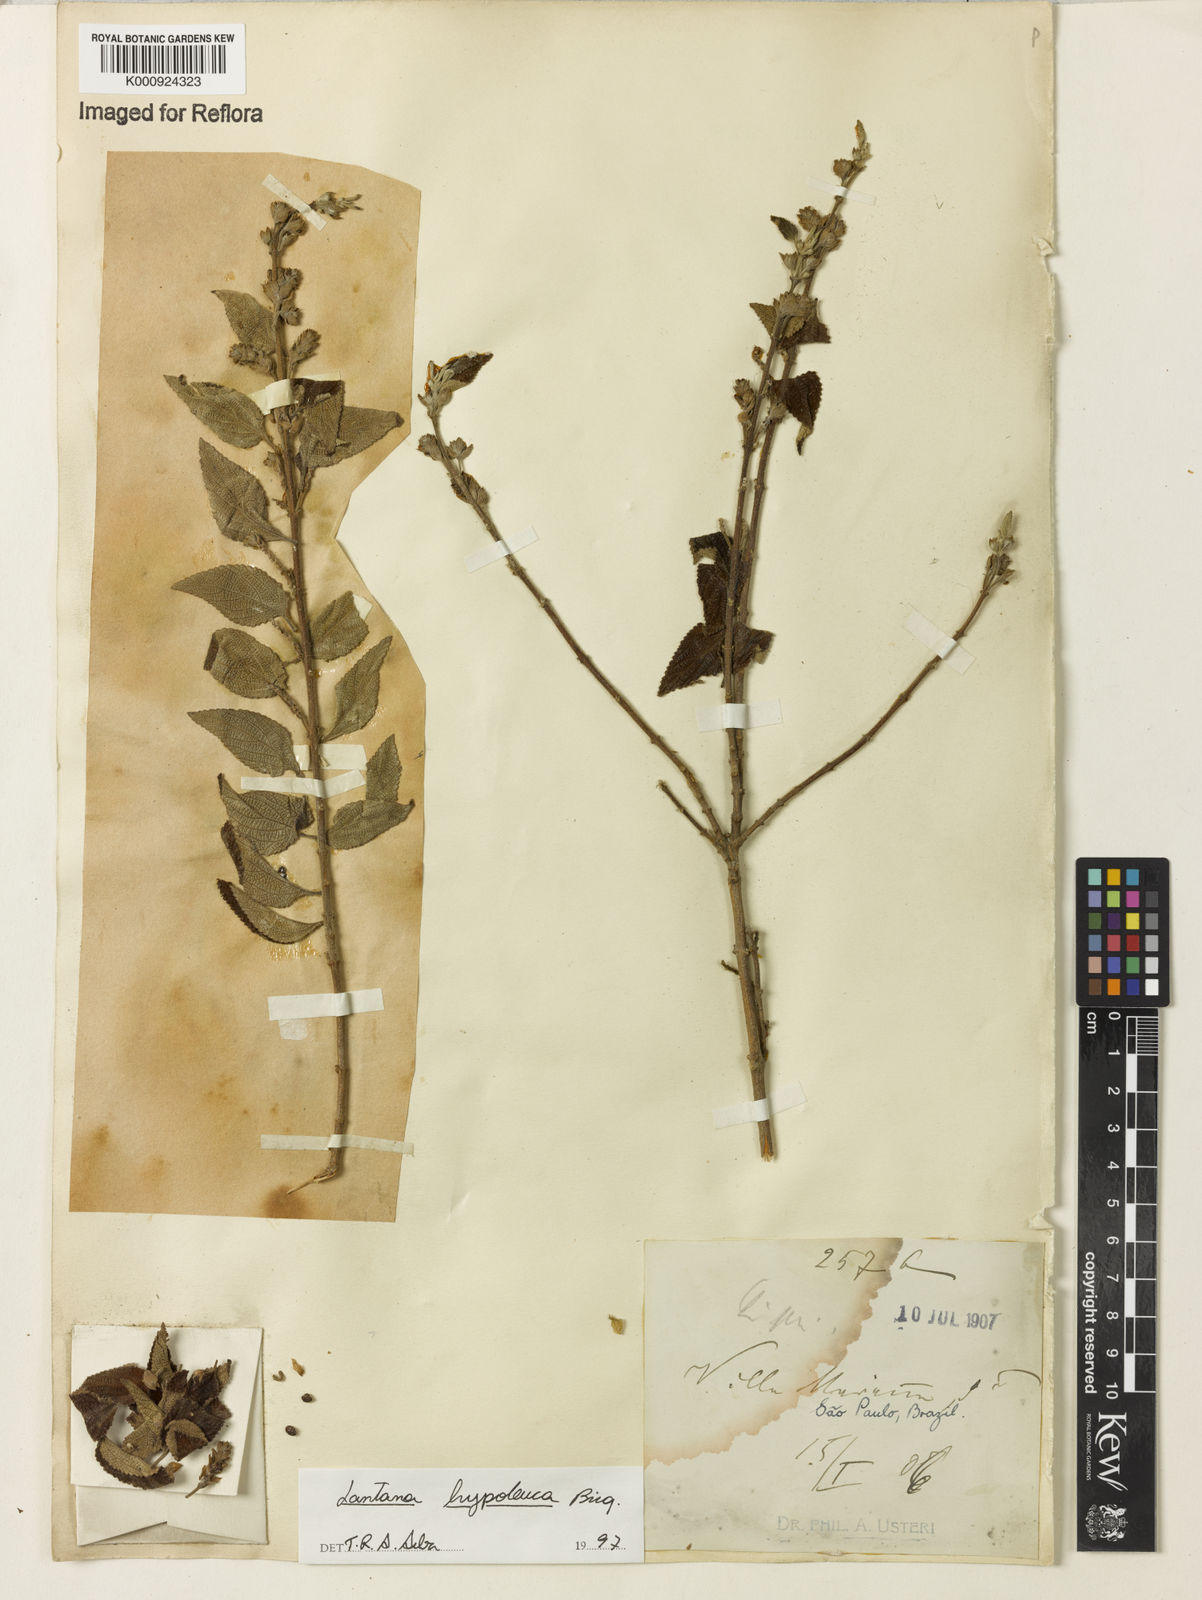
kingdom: Plantae
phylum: Tracheophyta
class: Magnoliopsida
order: Lamiales
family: Verbenaceae
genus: Lantana
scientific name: Lantana hypoleuca
